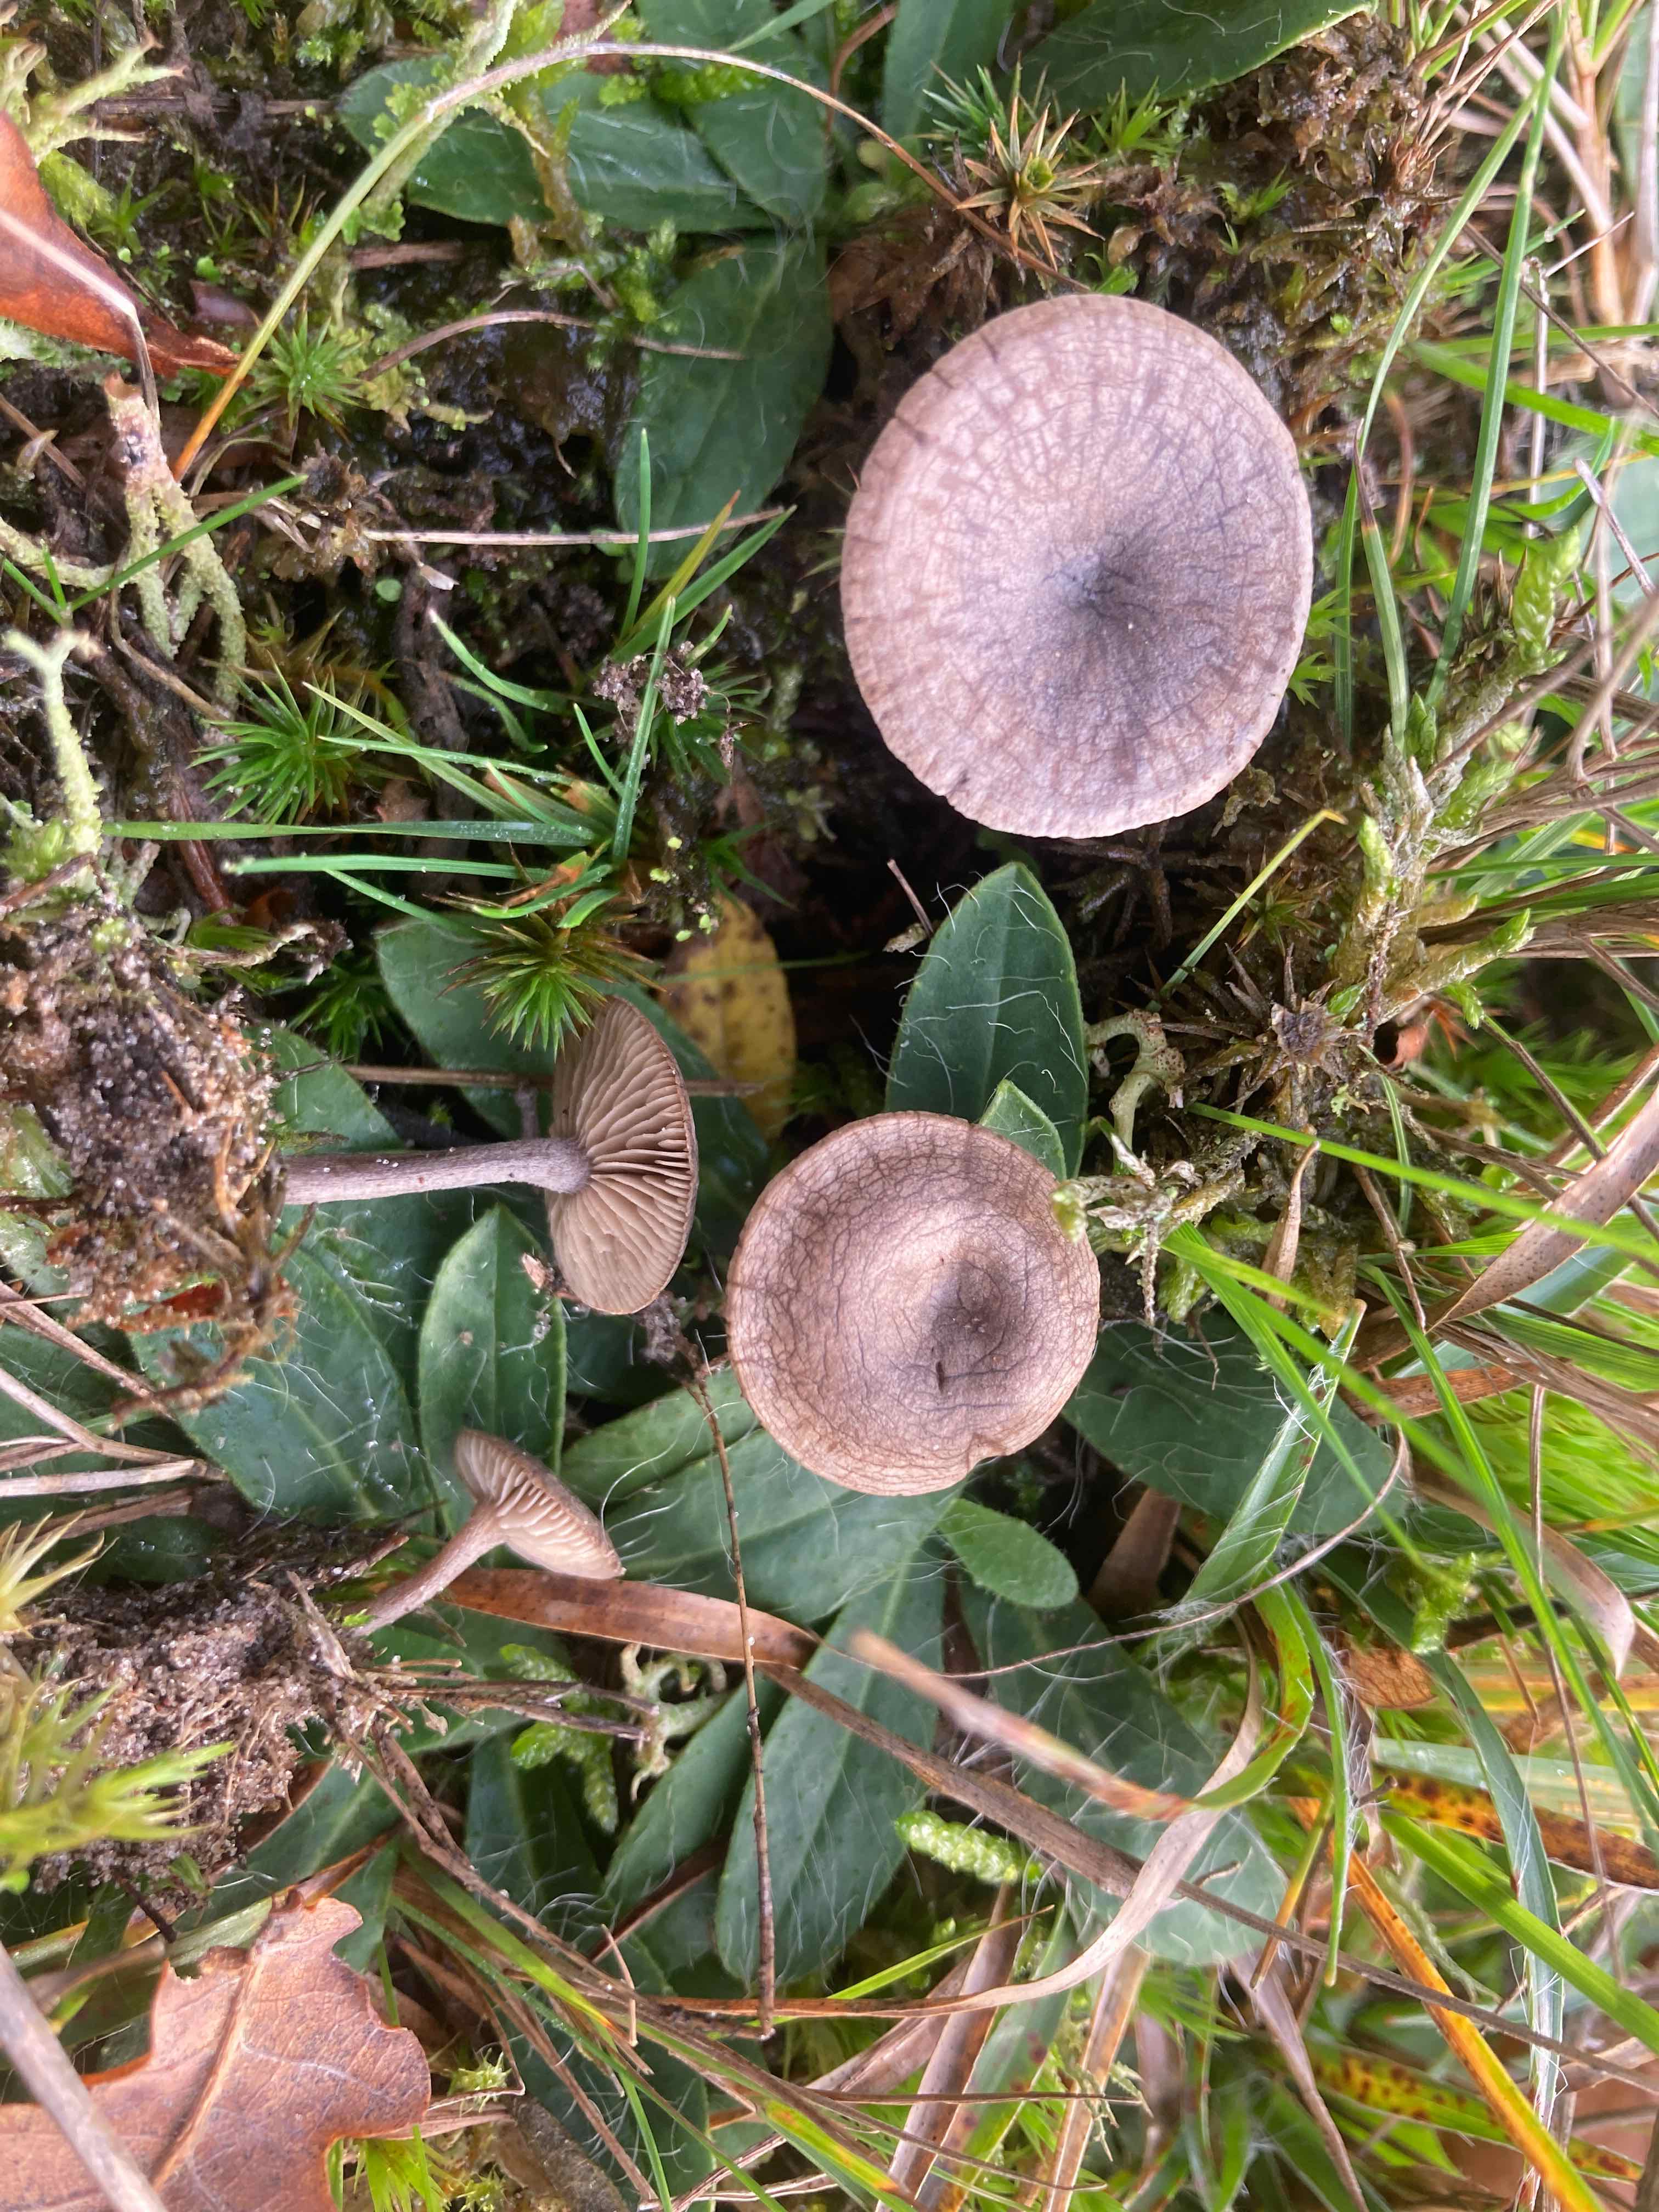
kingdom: Fungi
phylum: Basidiomycota
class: Agaricomycetes
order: Agaricales
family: Entolomataceae
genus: Clitopilus
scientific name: Clitopilus caelatus
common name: gråbrun troldhat
